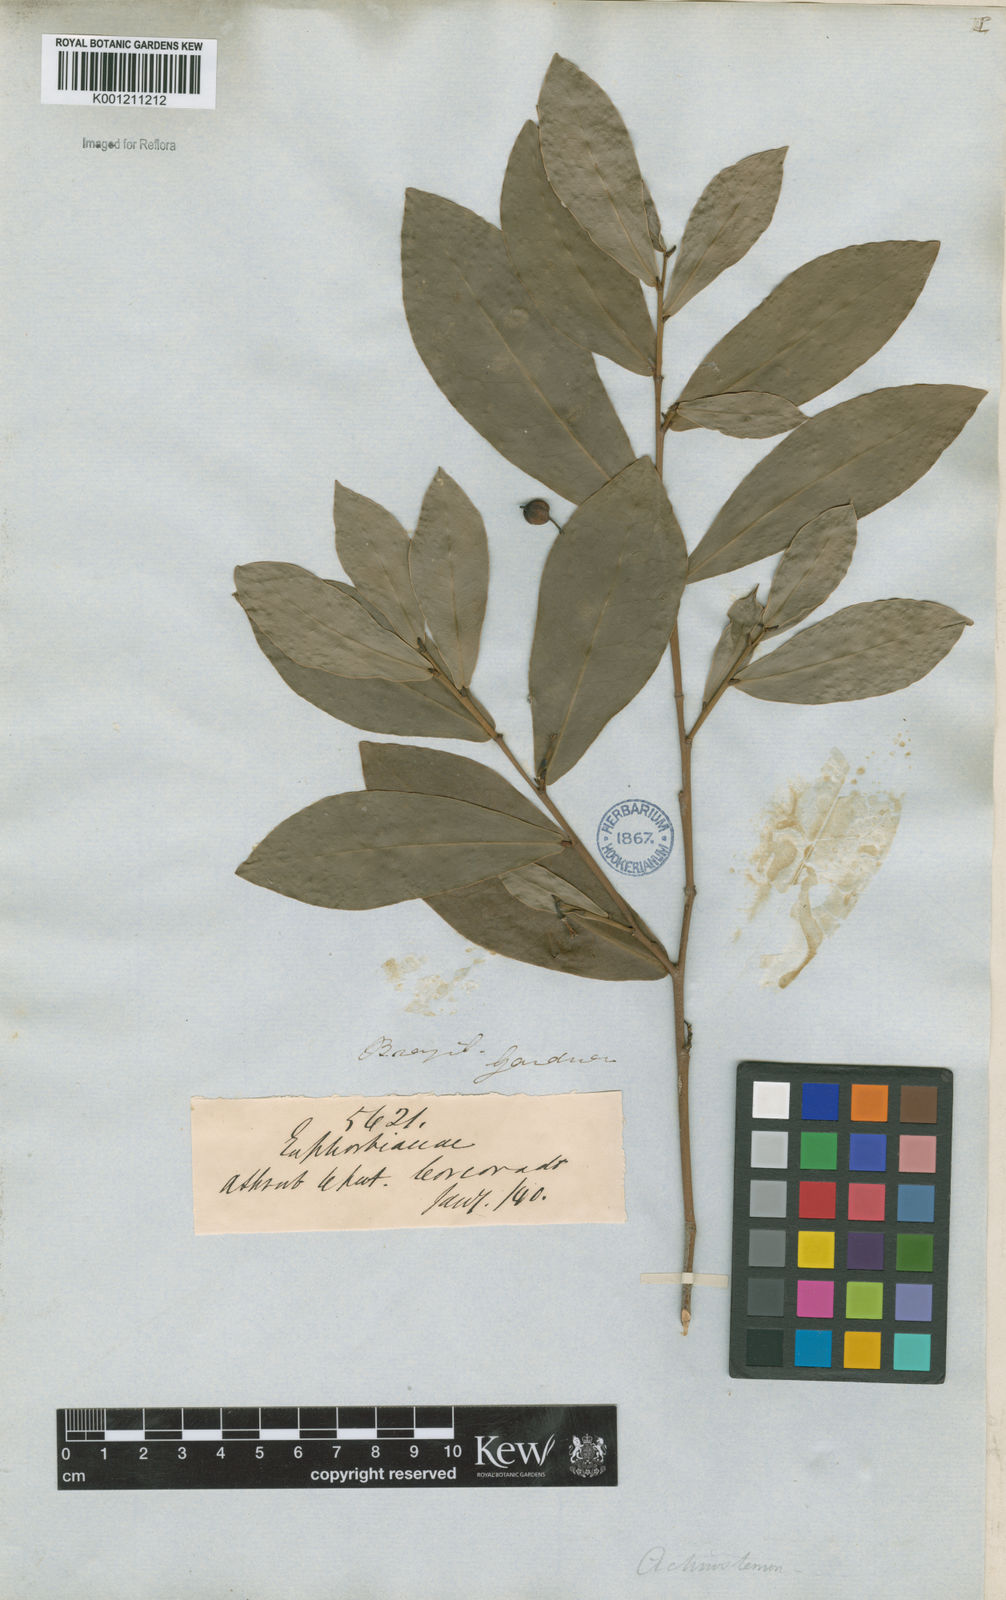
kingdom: Plantae
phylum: Tracheophyta
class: Magnoliopsida
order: Malpighiales
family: Euphorbiaceae
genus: Actinostemon
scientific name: Actinostemon
